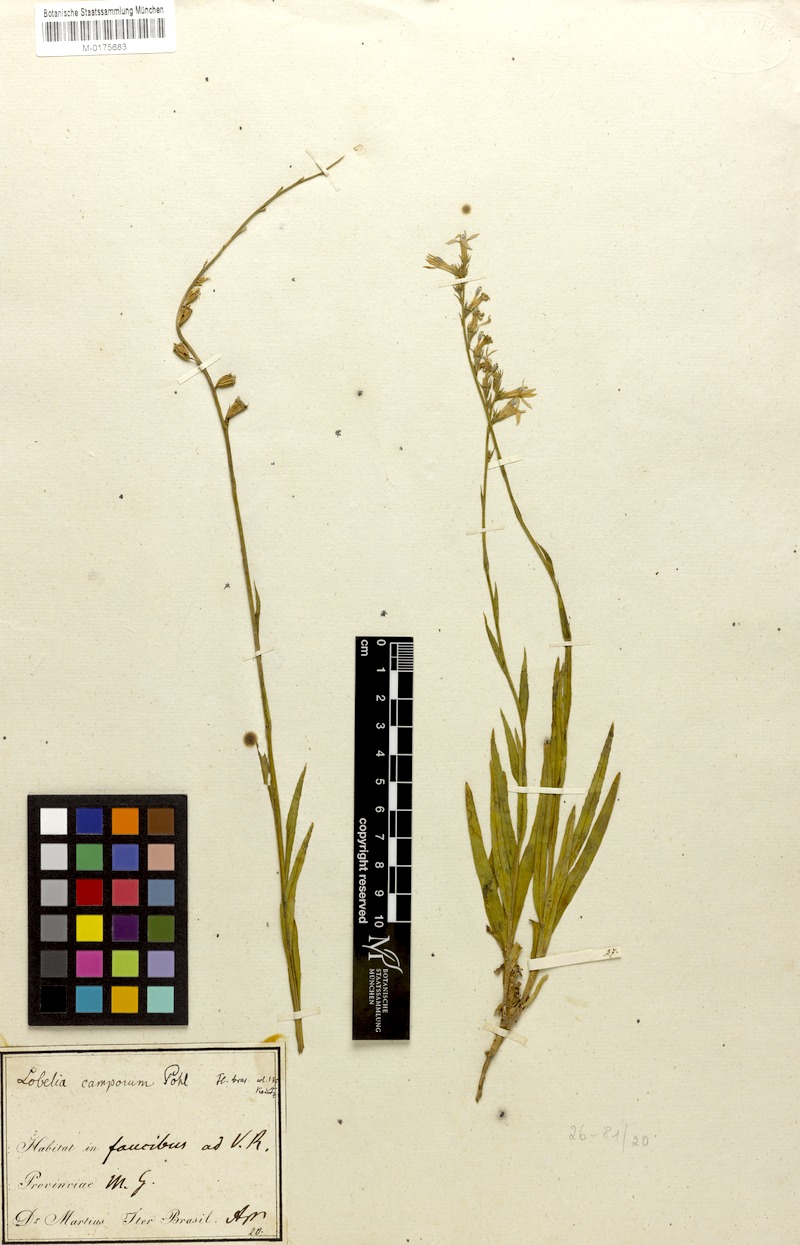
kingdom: Plantae
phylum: Tracheophyta
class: Magnoliopsida
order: Asterales
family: Campanulaceae
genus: Lobelia
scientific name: Lobelia camporum
